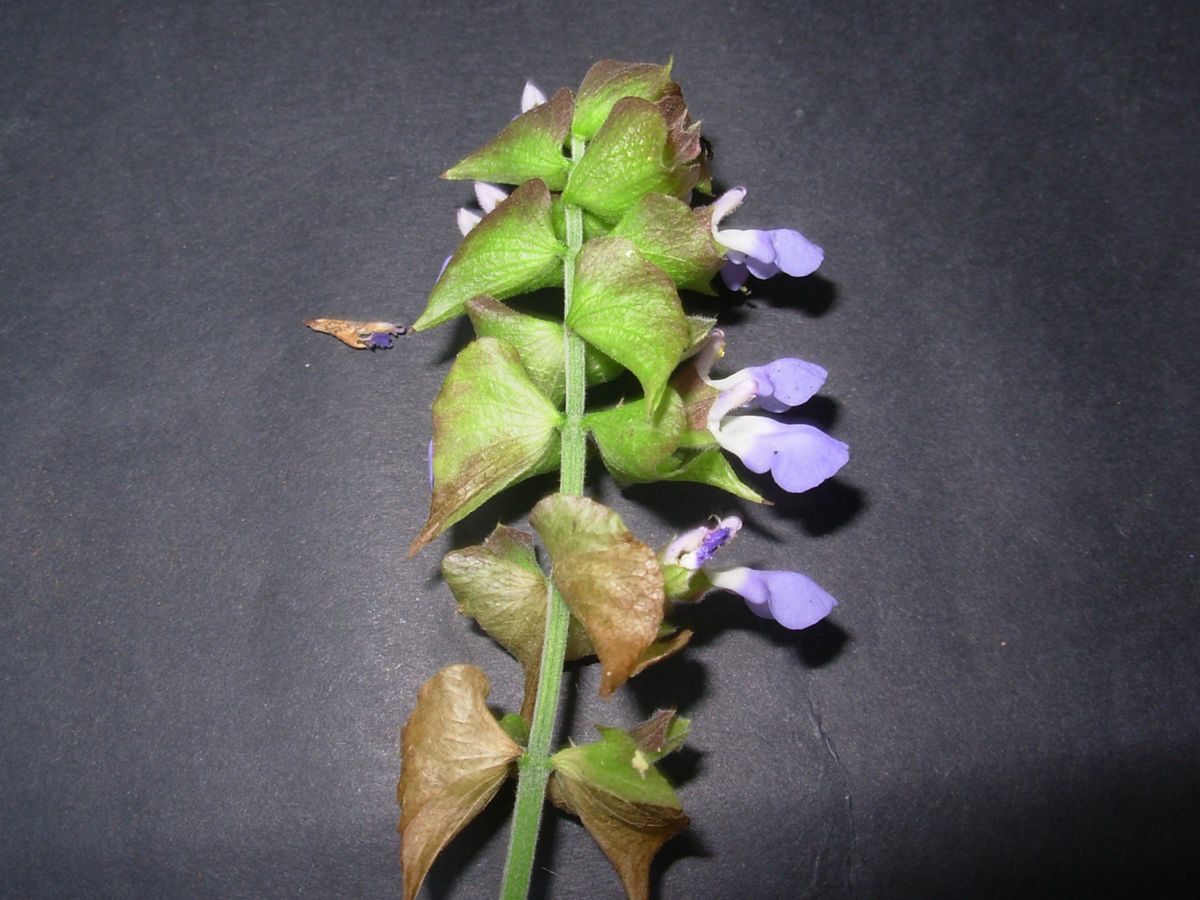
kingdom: Plantae
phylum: Tracheophyta
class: Magnoliopsida
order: Lamiales
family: Lamiaceae
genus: Salvia
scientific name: Salvia mocinoi
